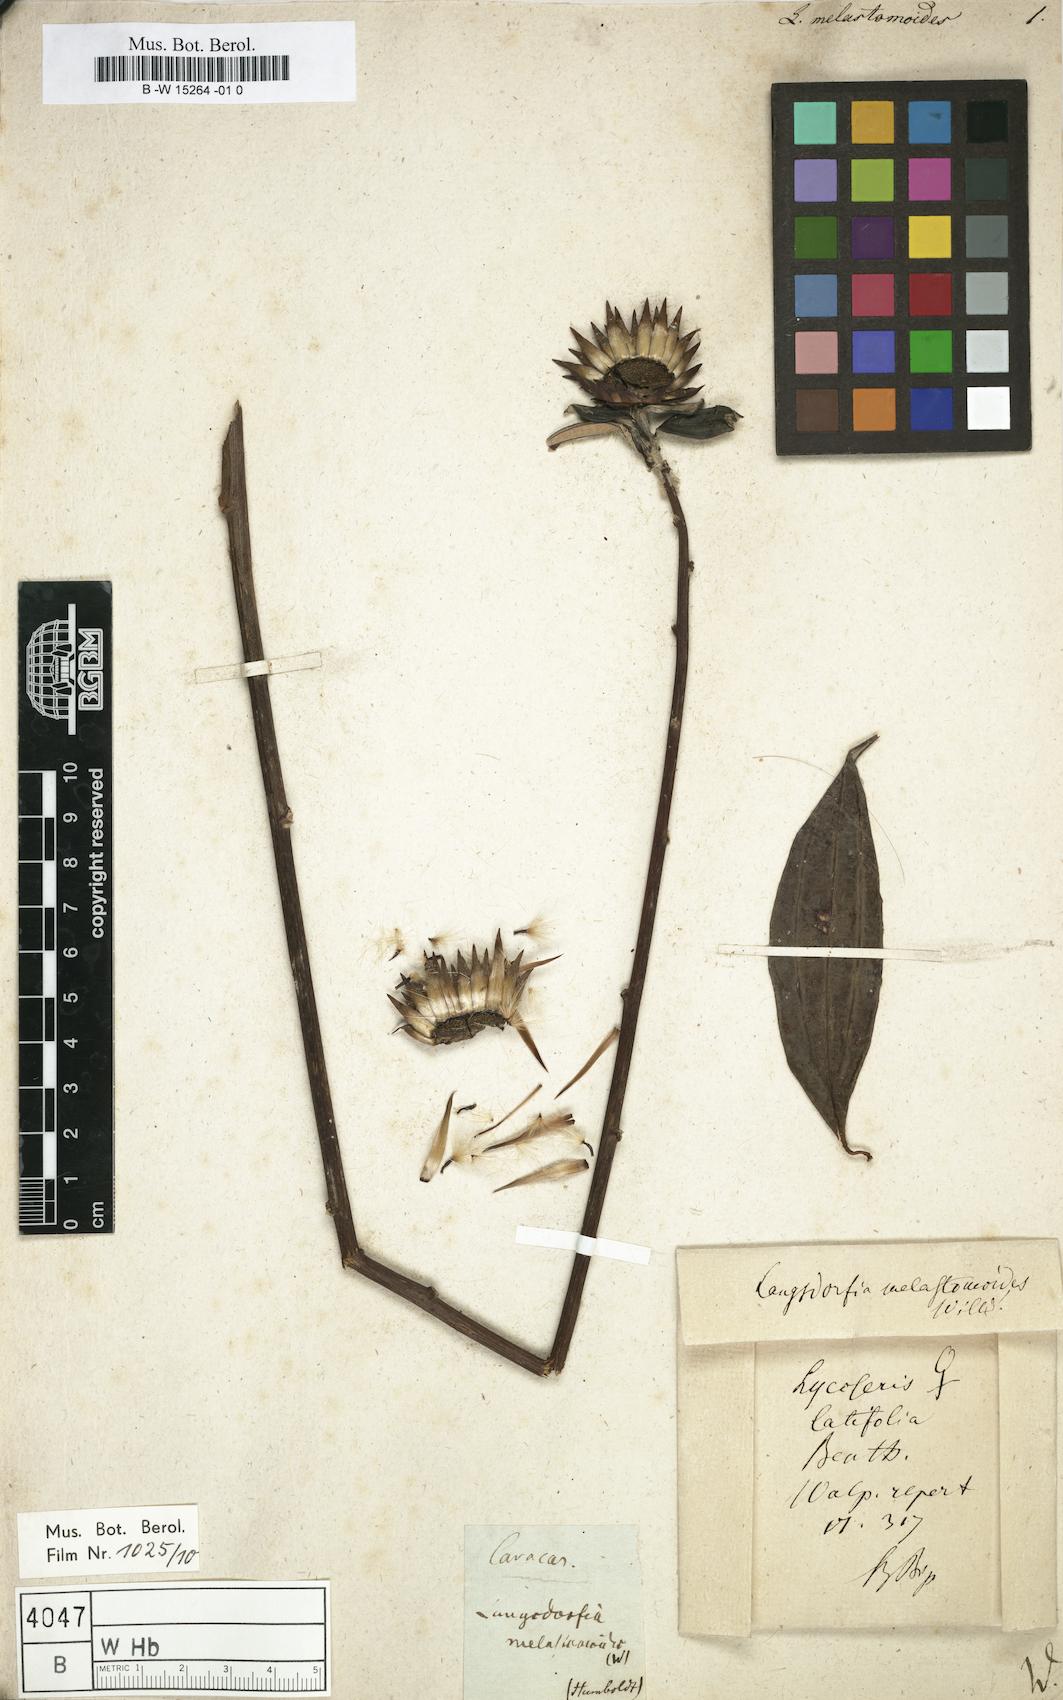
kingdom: Plantae
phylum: Tracheophyta
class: Magnoliopsida
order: Asterales
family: Asteraceae
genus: Lycoseris
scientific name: Lycoseris Langsdorfia melastomoides
